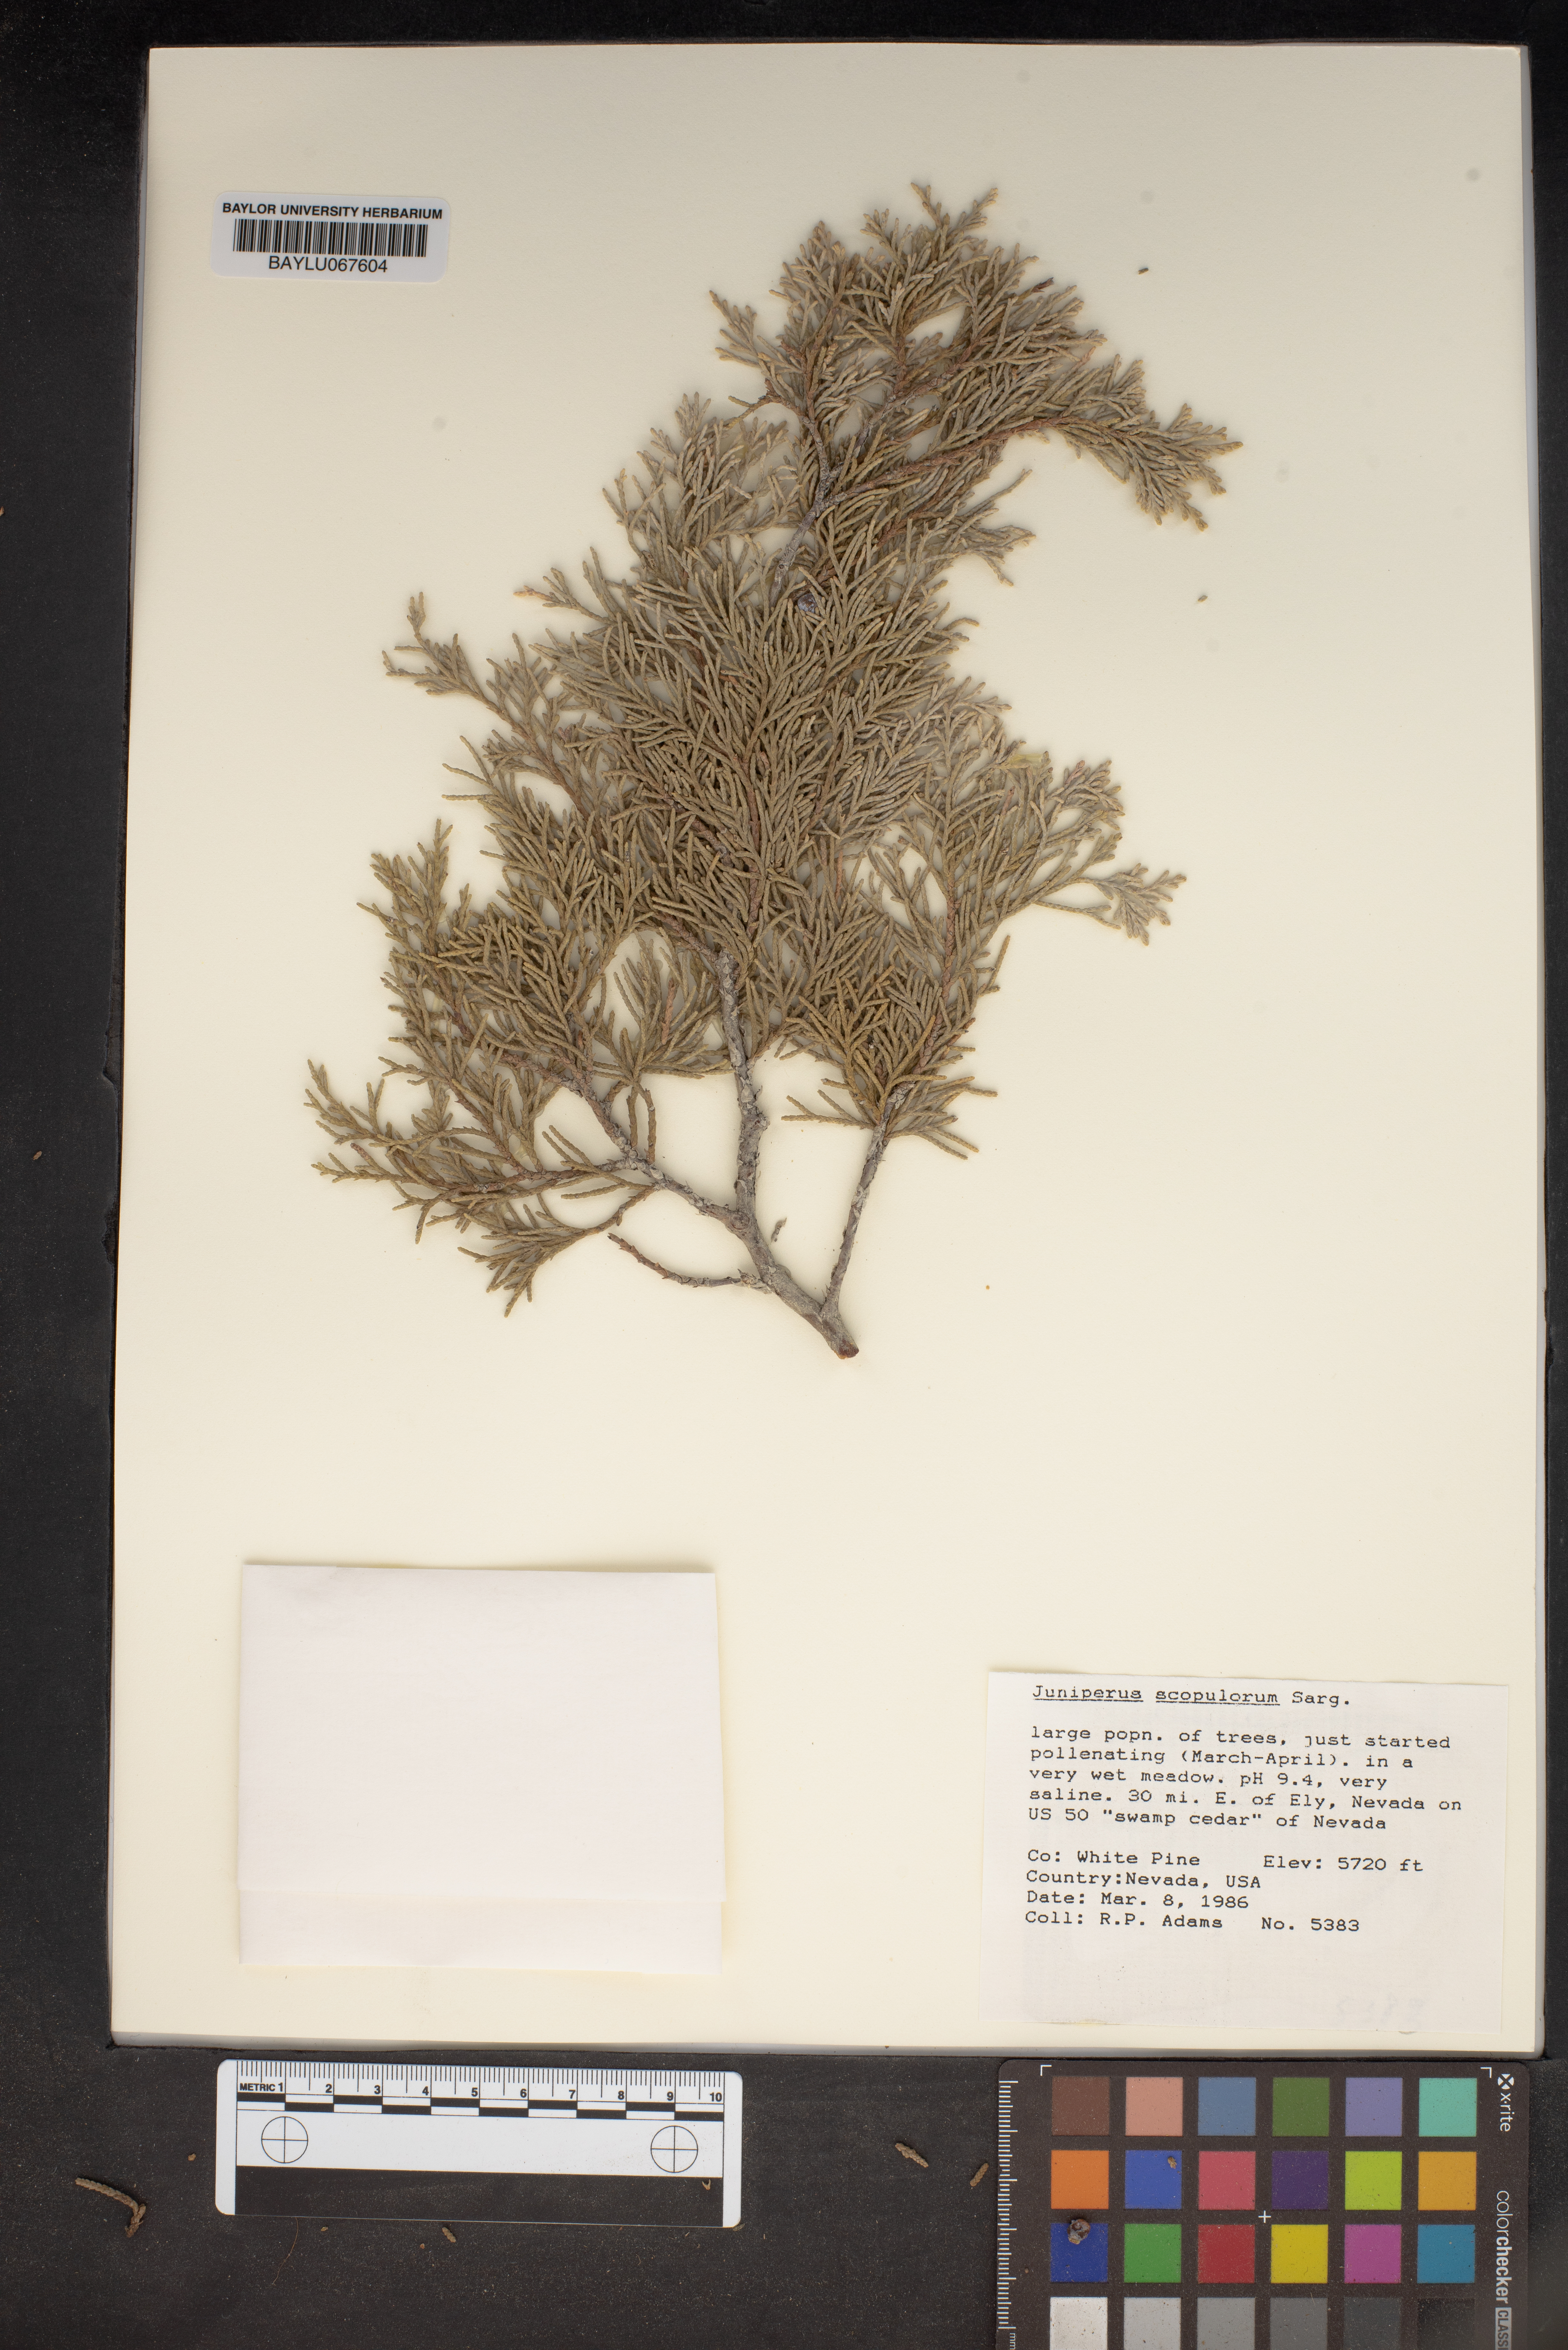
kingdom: Plantae
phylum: Tracheophyta
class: Pinopsida
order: Pinales
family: Cupressaceae
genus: Juniperus
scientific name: Juniperus scopulorum
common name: Rocky mountain juniper
